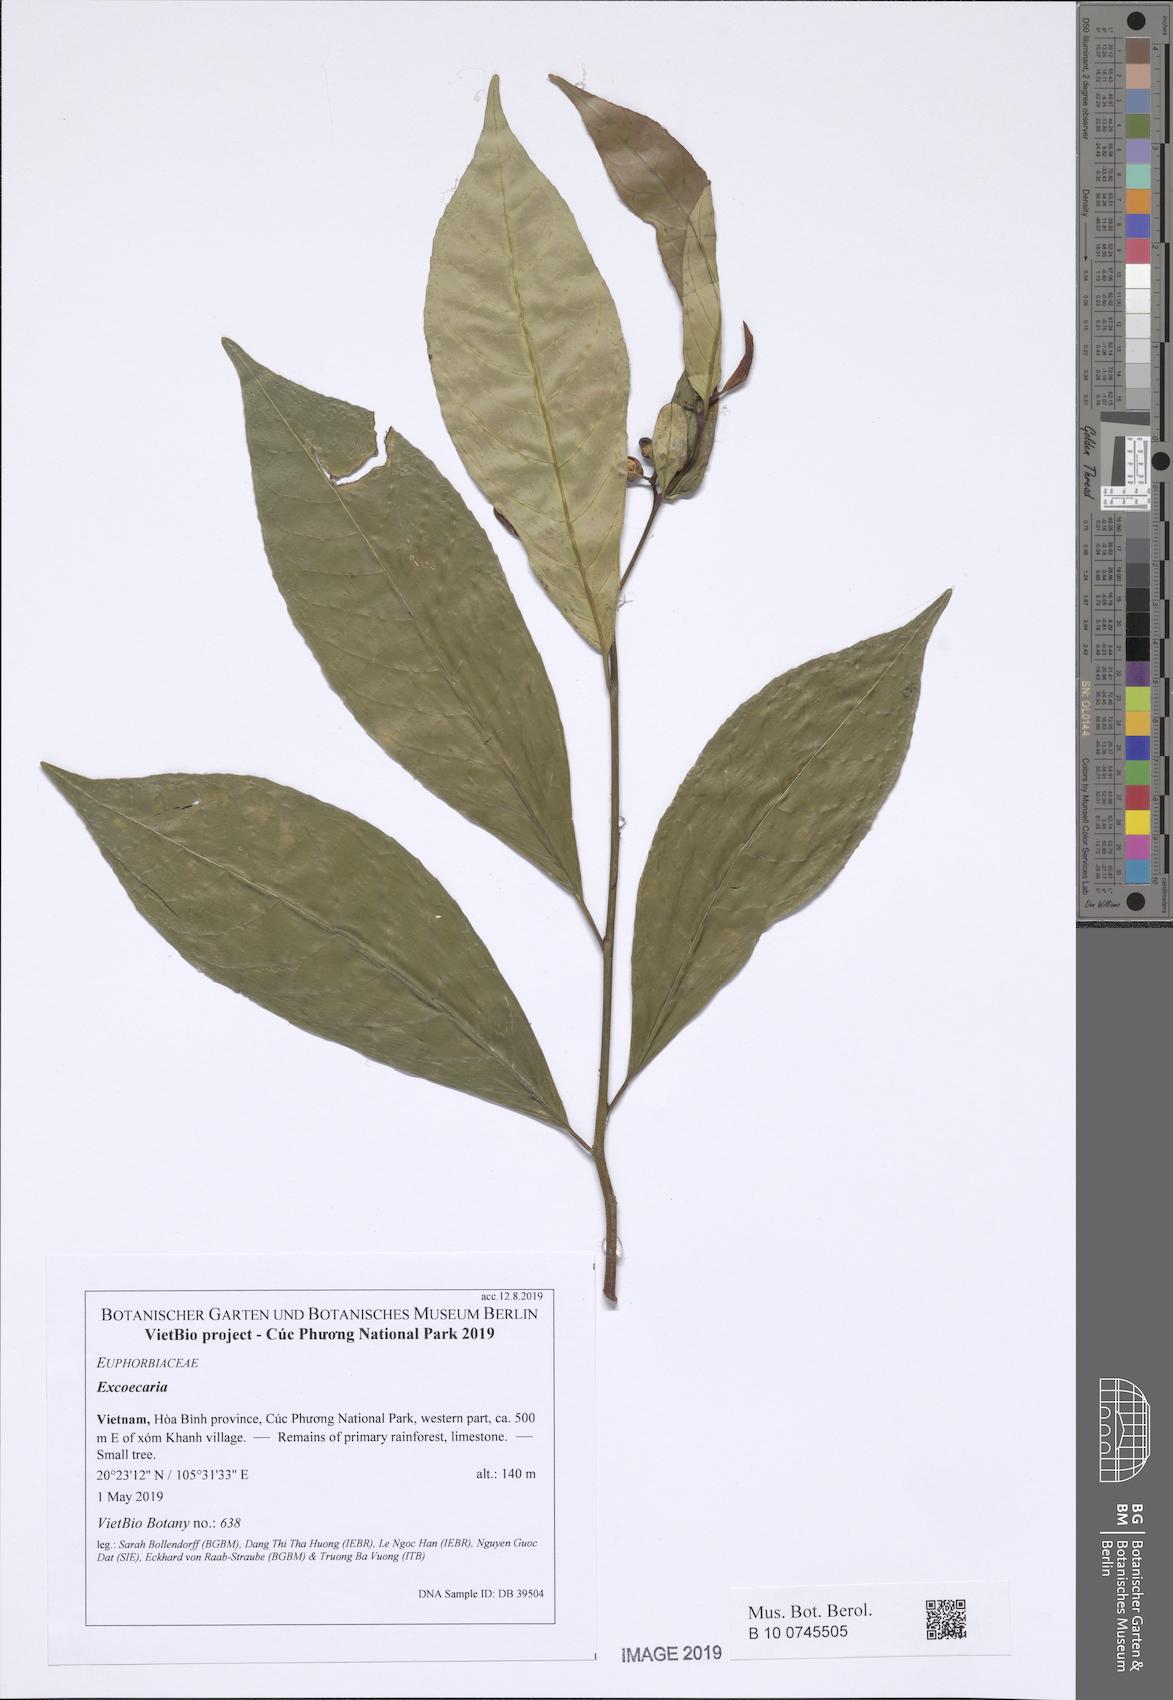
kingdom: Plantae
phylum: Tracheophyta
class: Magnoliopsida
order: Malpighiales
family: Euphorbiaceae
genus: Excoecaria
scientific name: Excoecaria cochinchinensis
